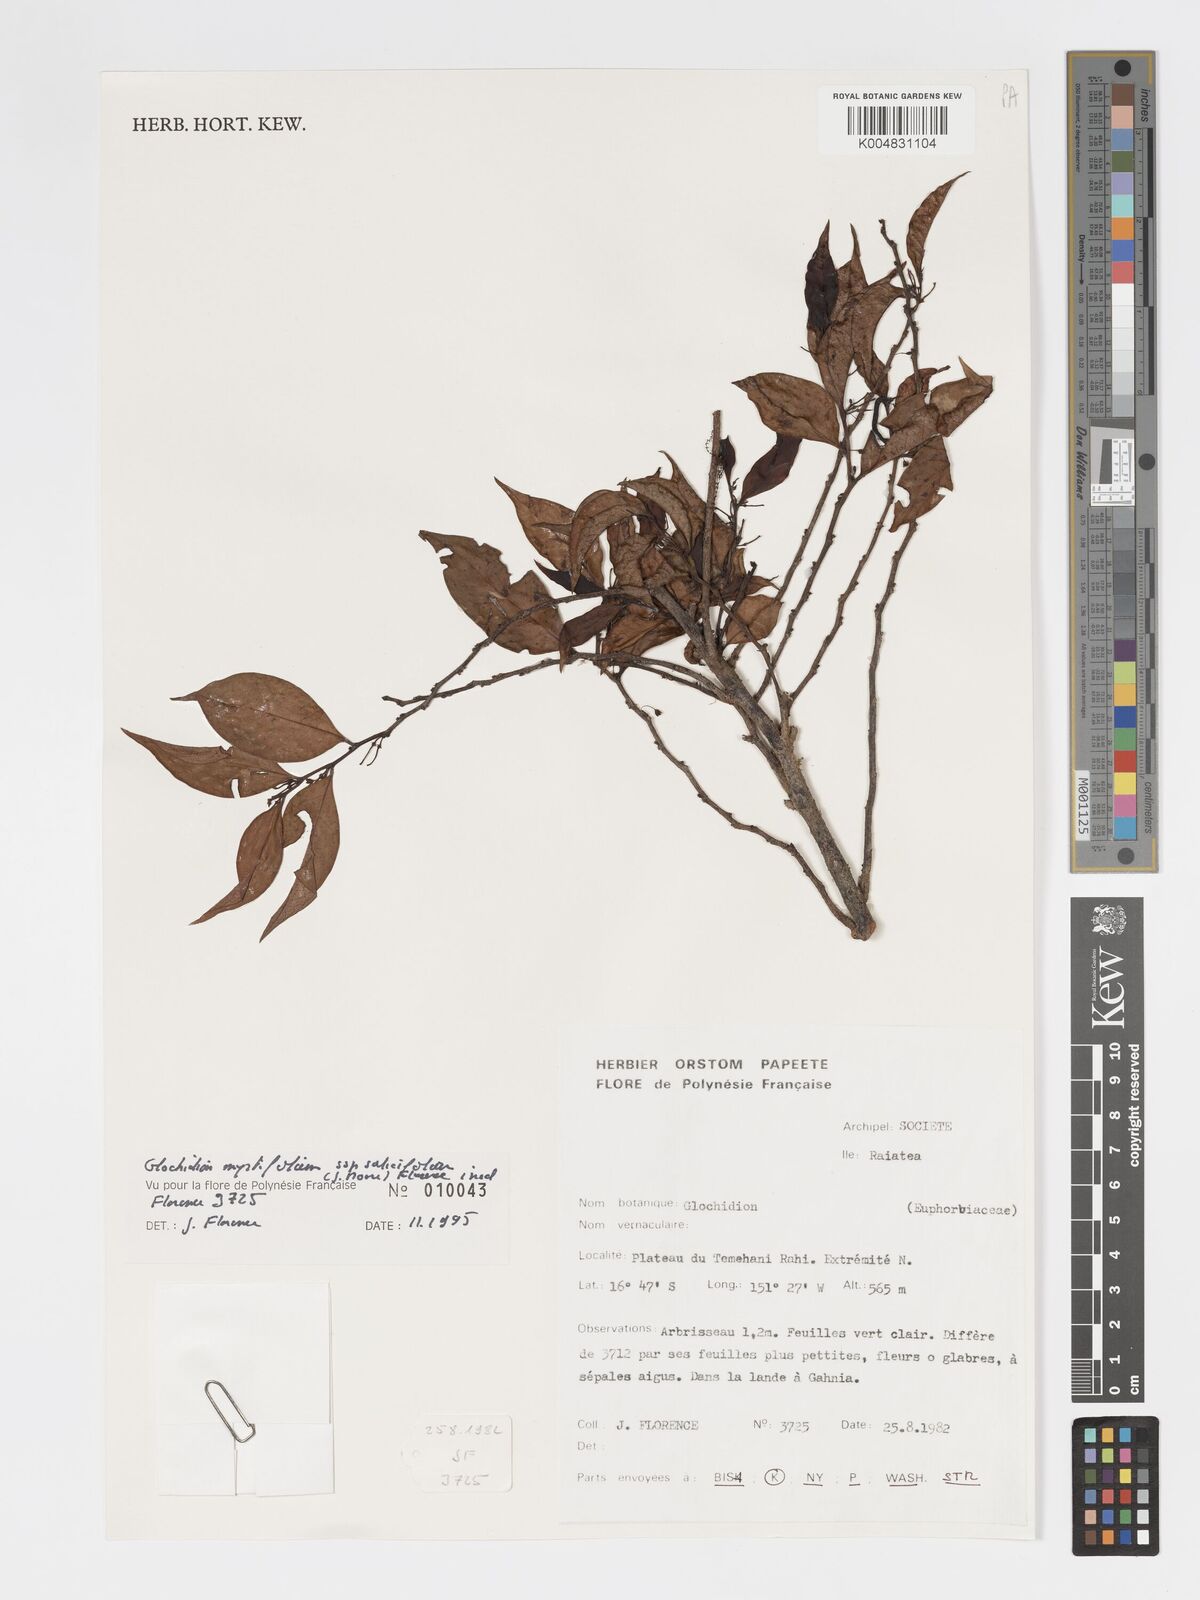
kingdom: Plantae
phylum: Tracheophyta
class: Magnoliopsida
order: Malpighiales
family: Phyllanthaceae
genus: Glochidion
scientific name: Glochidion myrtifolium
